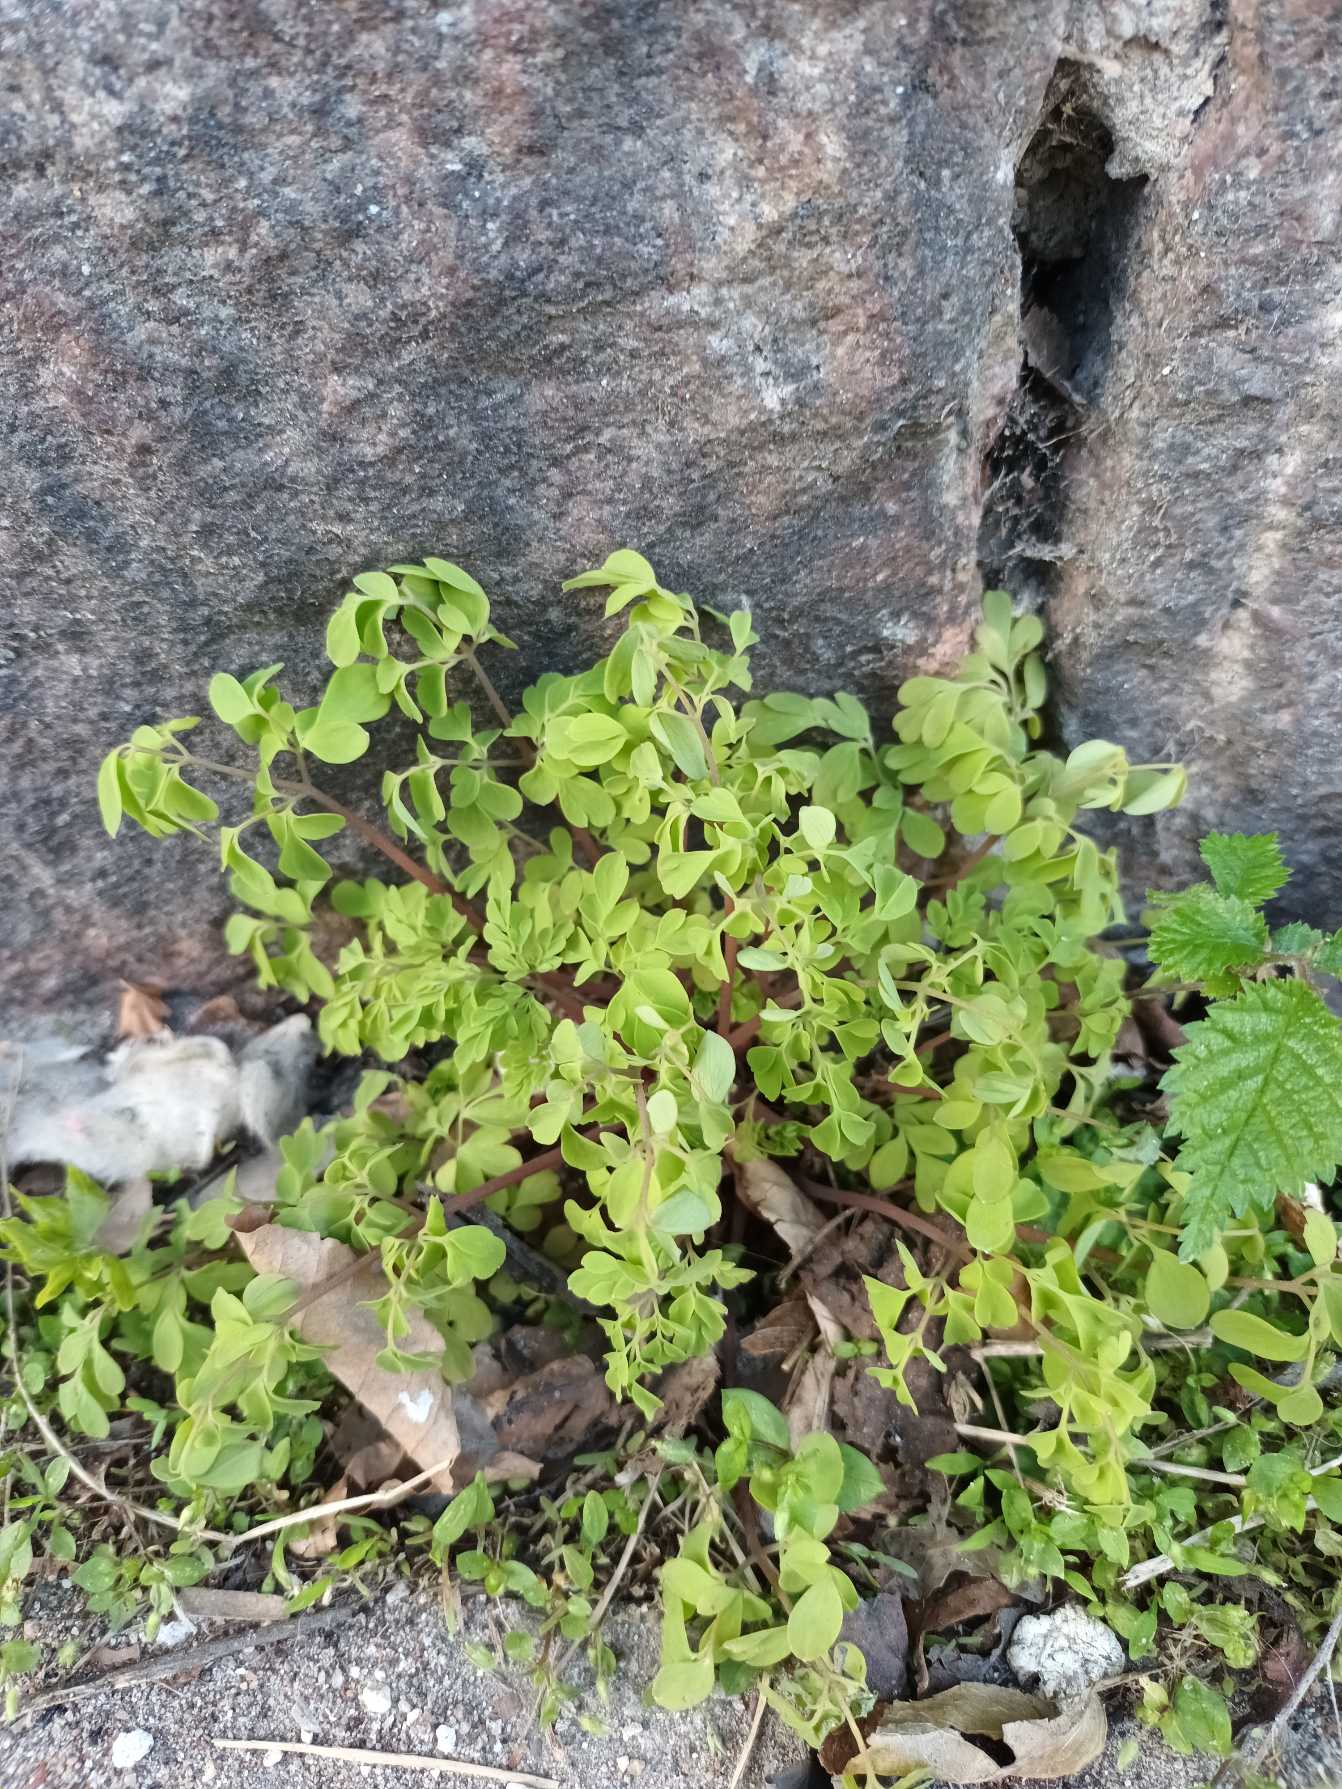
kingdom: Plantae
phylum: Tracheophyta
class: Magnoliopsida
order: Ranunculales
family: Papaveraceae
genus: Pseudofumaria
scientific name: Pseudofumaria lutea
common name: Gul lærkespore
